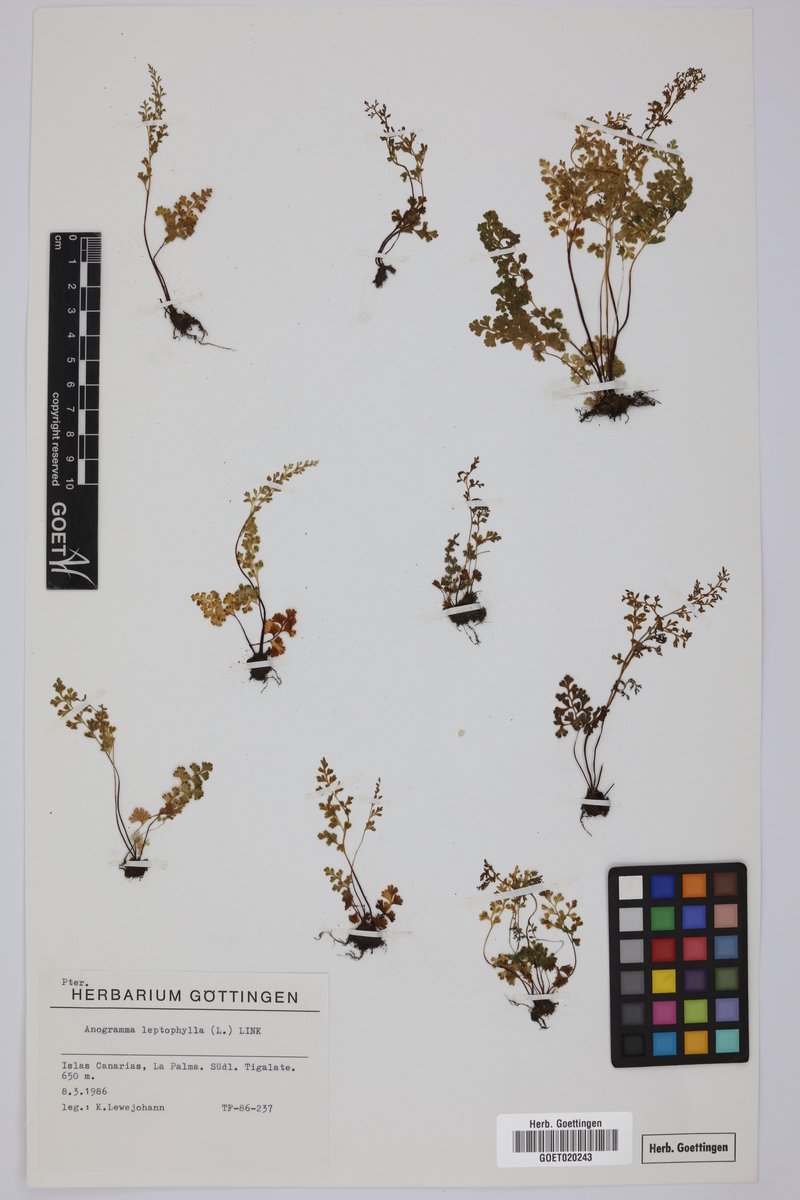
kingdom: Plantae
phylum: Tracheophyta
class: Polypodiopsida
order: Polypodiales
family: Pteridaceae
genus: Anogramma
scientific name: Anogramma leptophylla
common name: Jersey fern
